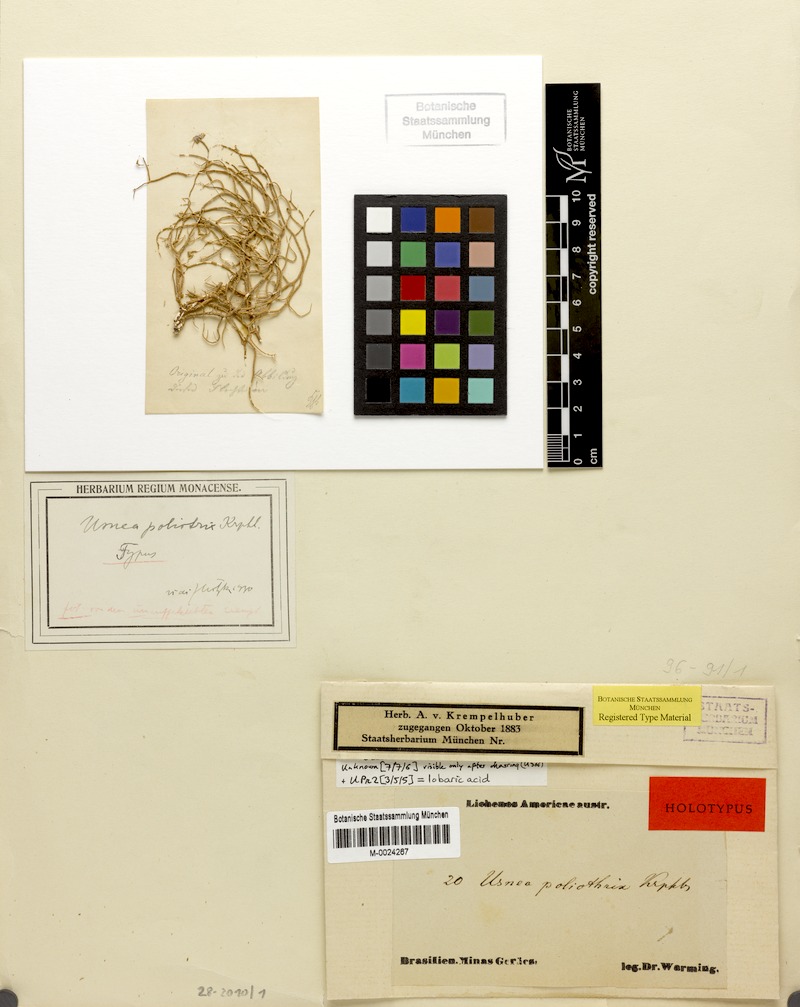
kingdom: Fungi
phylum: Ascomycota
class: Lecanoromycetes
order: Lecanorales
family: Parmeliaceae
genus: Usnea
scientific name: Usnea poliotrix
